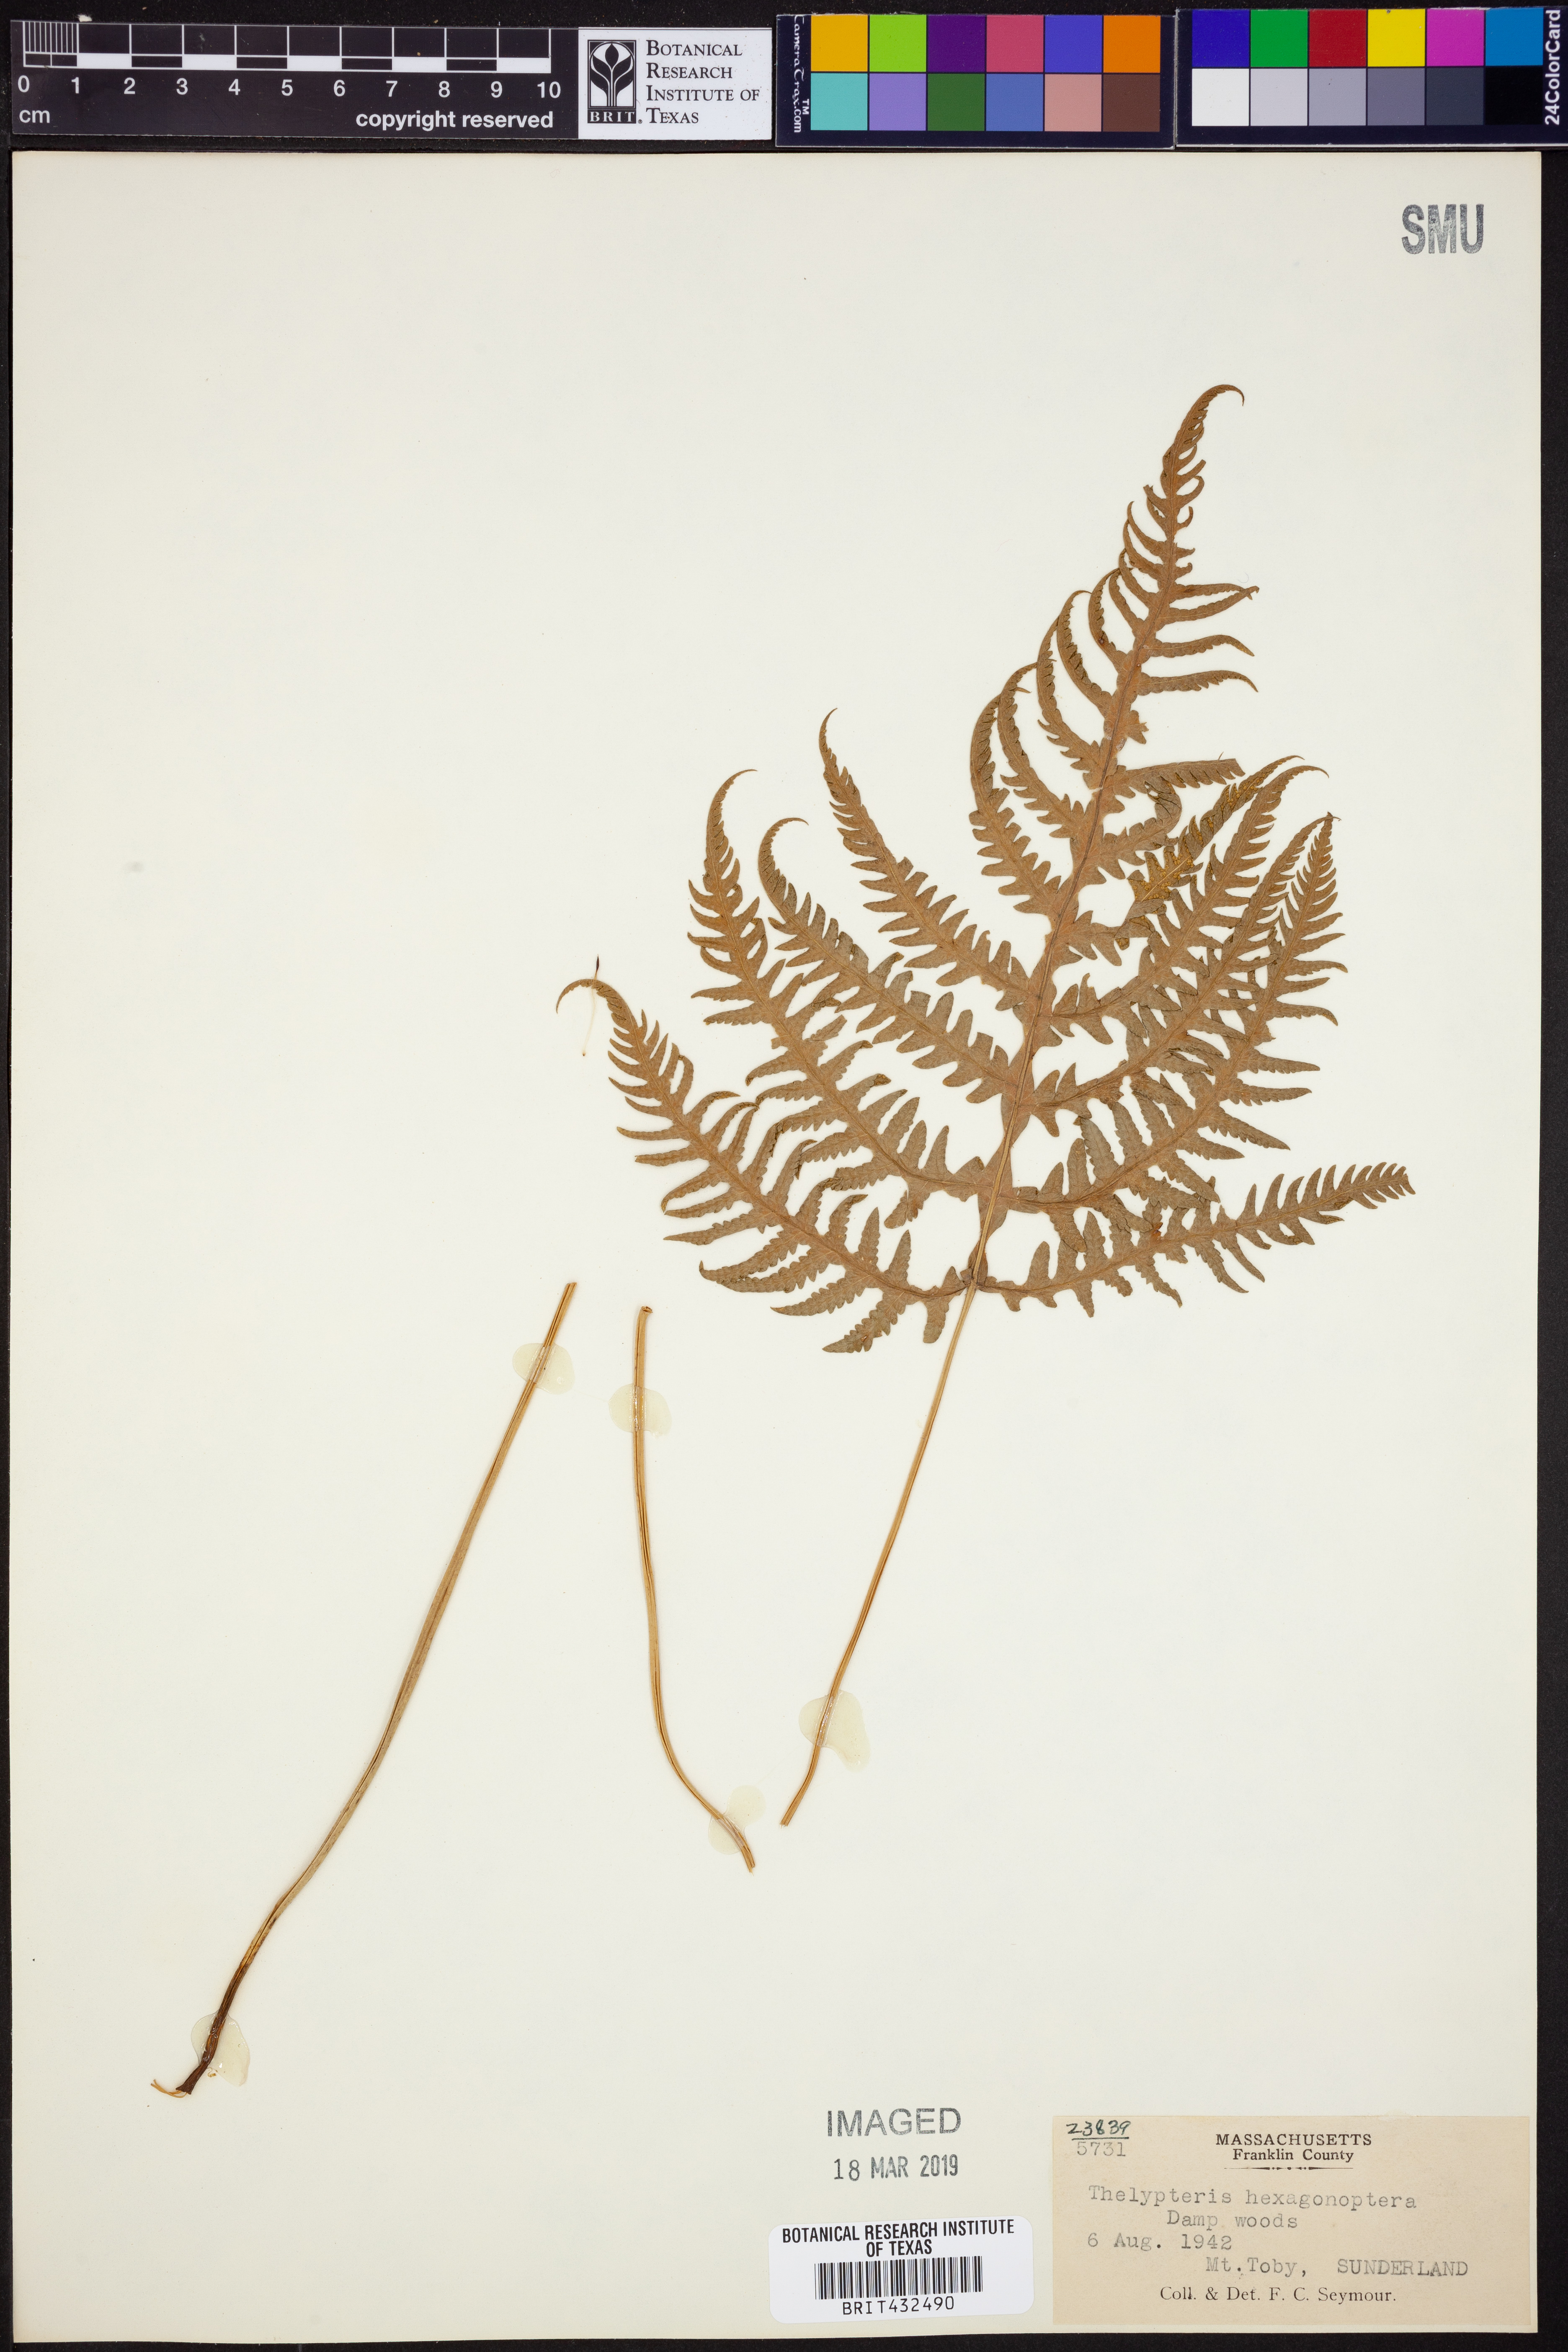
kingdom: Plantae
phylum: Tracheophyta
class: Polypodiopsida
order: Polypodiales
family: Thelypteridaceae
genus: Phegopteris
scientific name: Phegopteris hexagonoptera
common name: Broad beech fern
